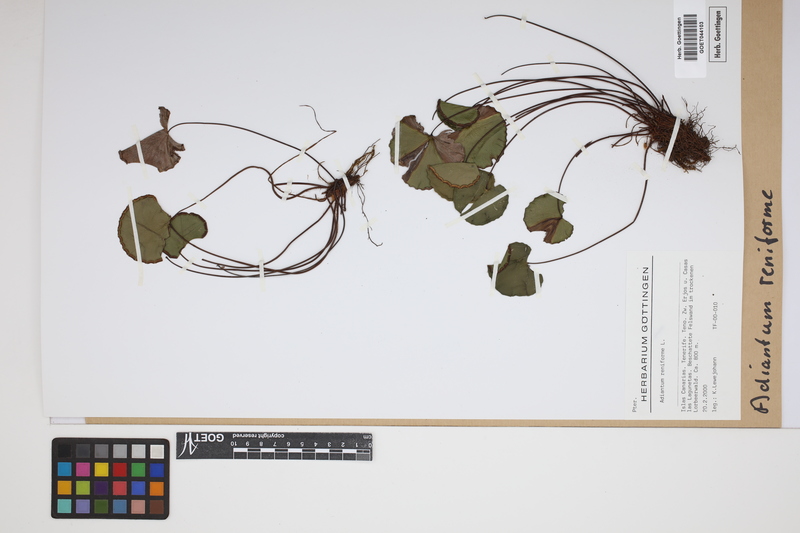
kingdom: Plantae
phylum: Tracheophyta
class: Polypodiopsida
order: Polypodiales
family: Pteridaceae
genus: Adiantum
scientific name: Adiantum reniforme
